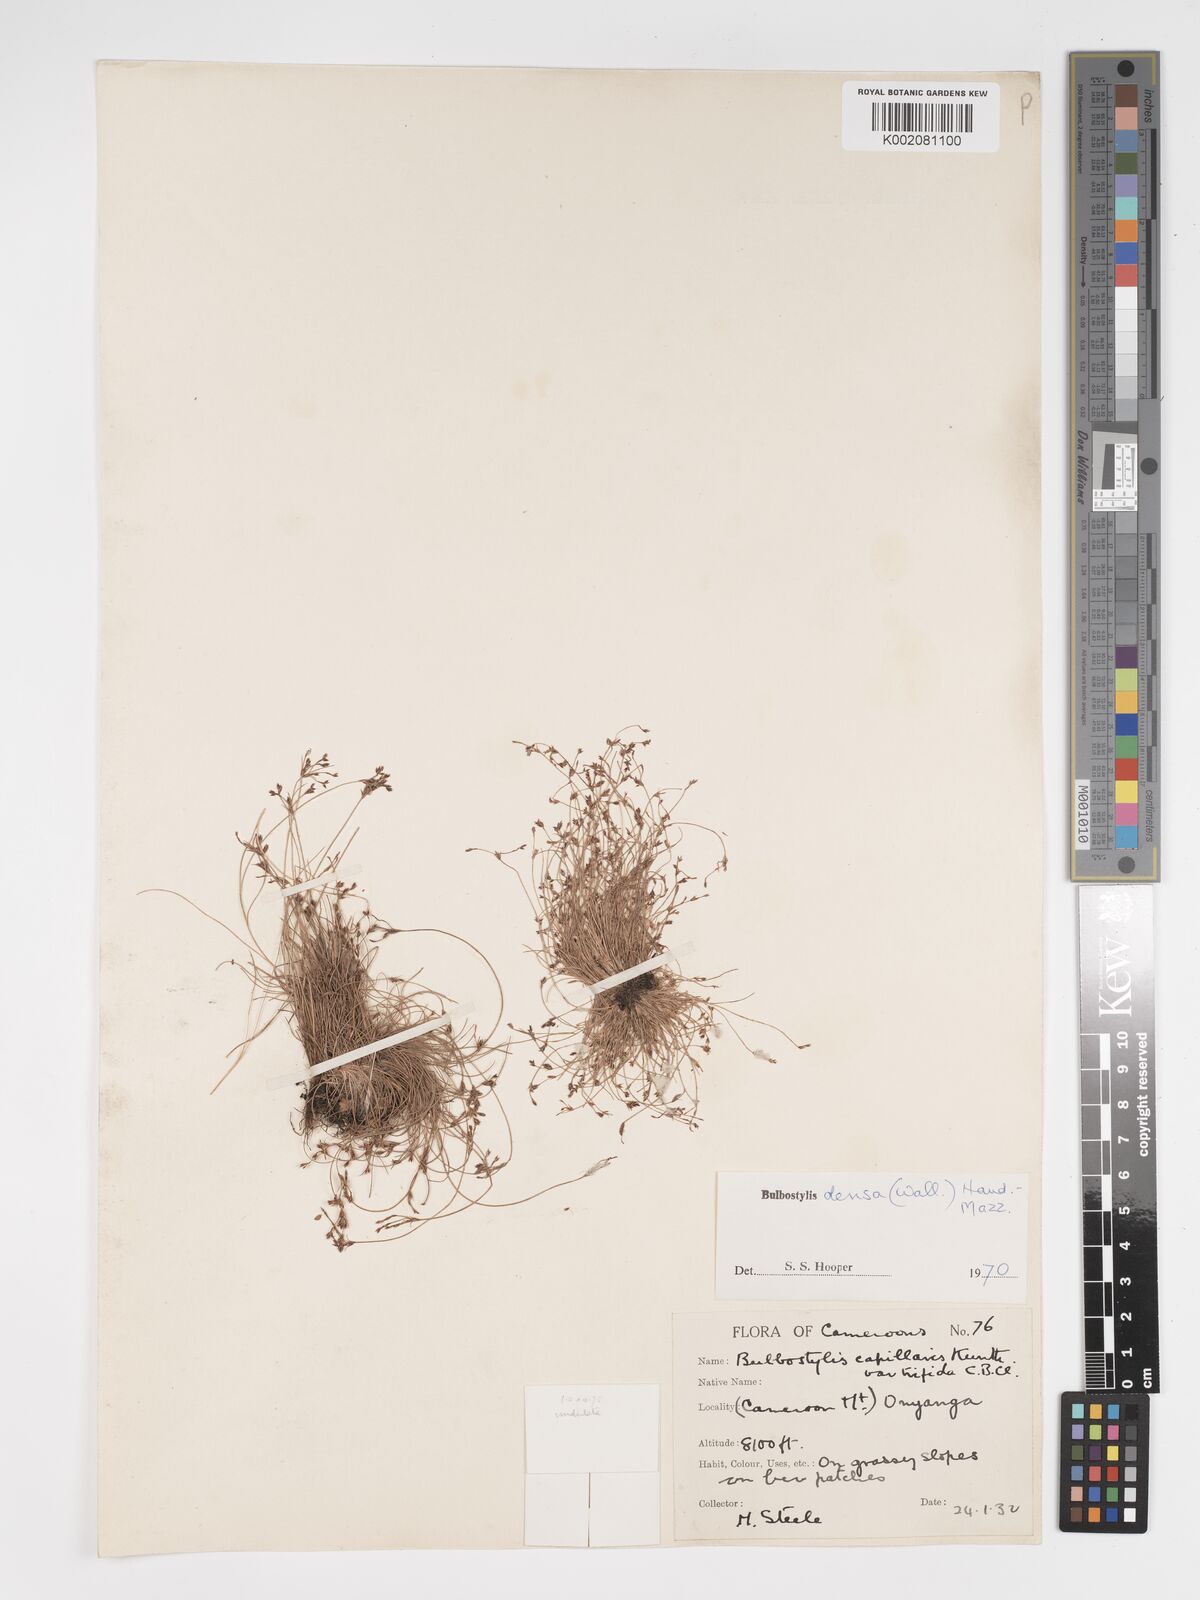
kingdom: Plantae
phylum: Tracheophyta
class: Liliopsida
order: Poales
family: Cyperaceae
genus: Bulbostylis
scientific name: Bulbostylis densa
